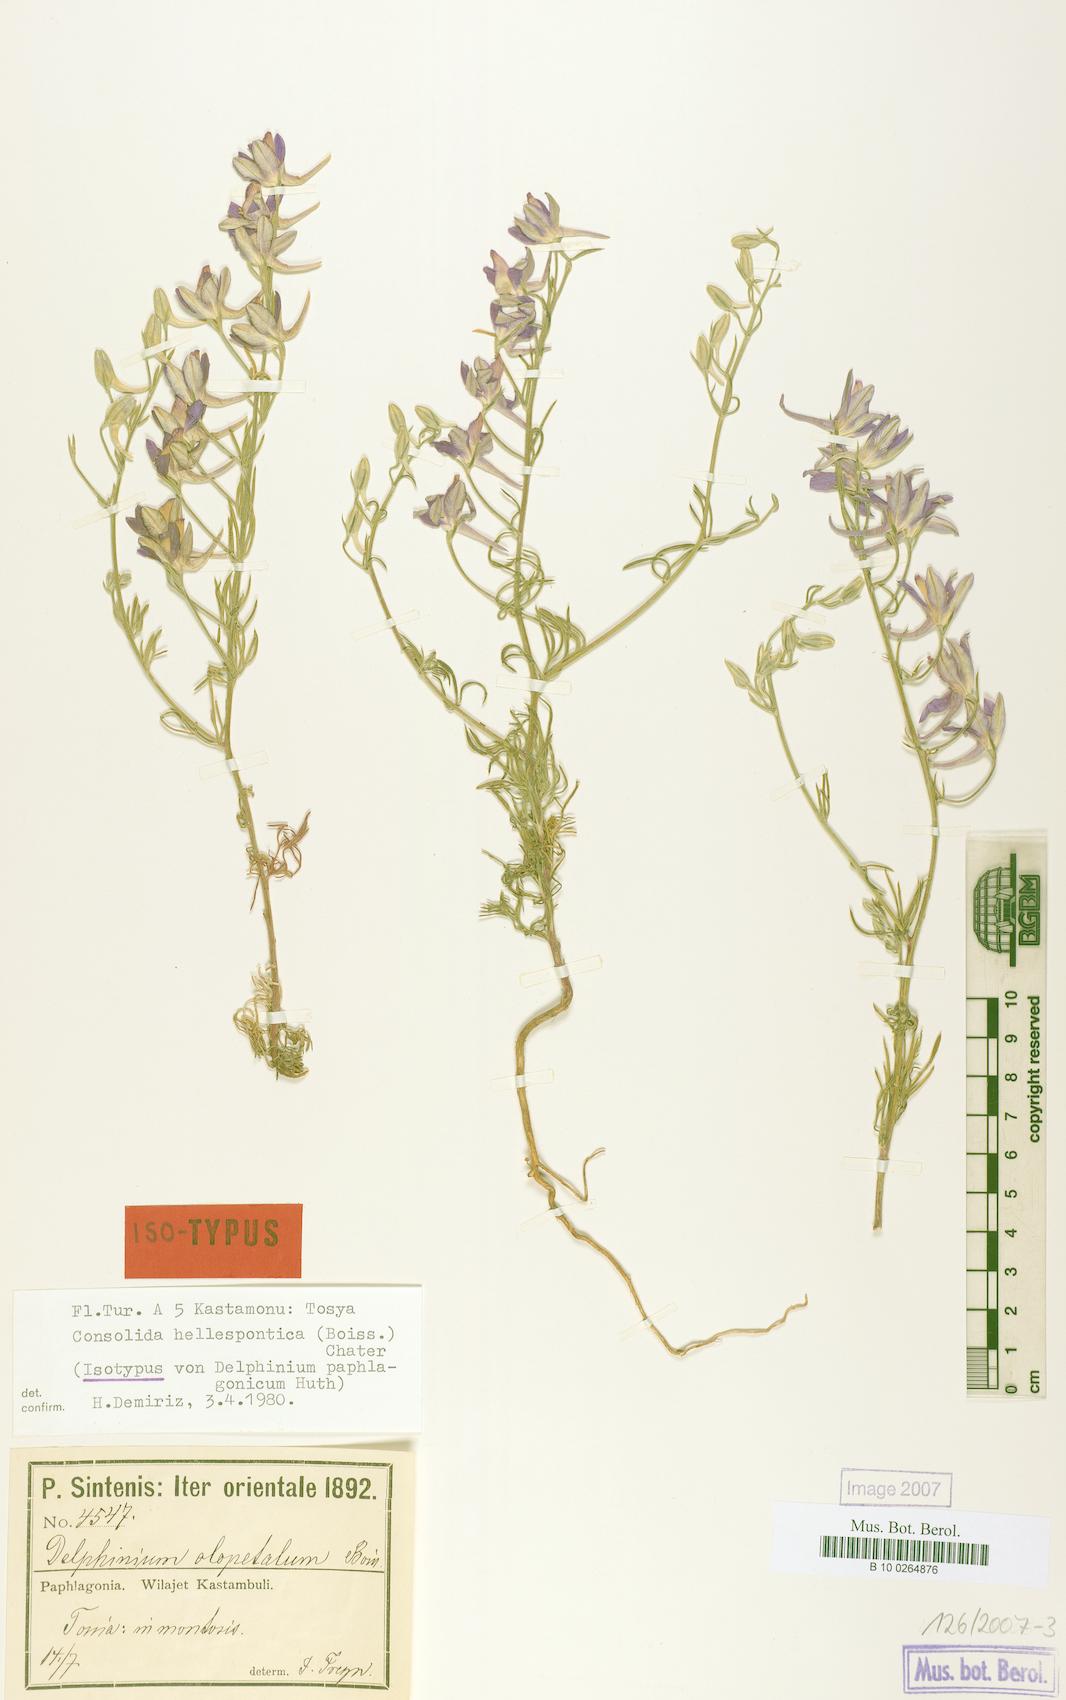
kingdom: Plantae
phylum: Tracheophyta
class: Magnoliopsida
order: Ranunculales
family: Ranunculaceae
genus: Delphinium
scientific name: Delphinium hellesponticum
